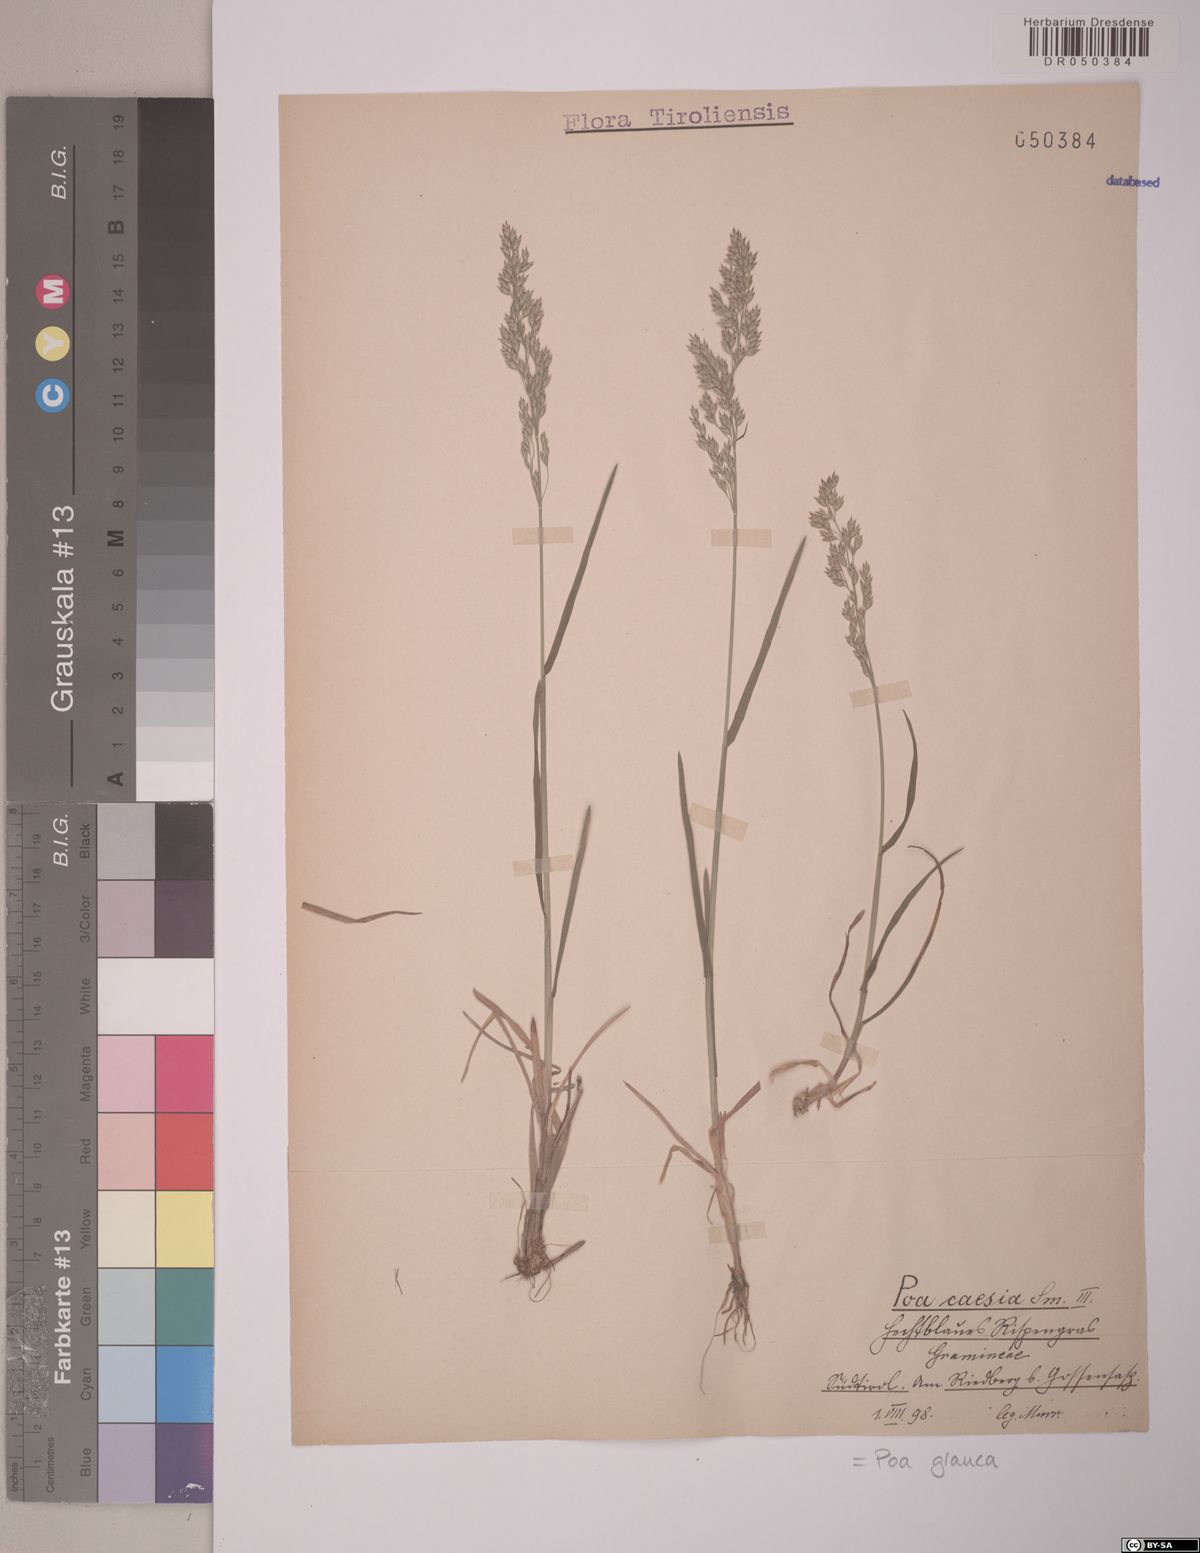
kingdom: Plantae
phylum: Tracheophyta
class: Liliopsida
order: Poales
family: Poaceae
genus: Poa
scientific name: Poa glauca
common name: Glaucous bluegrass
